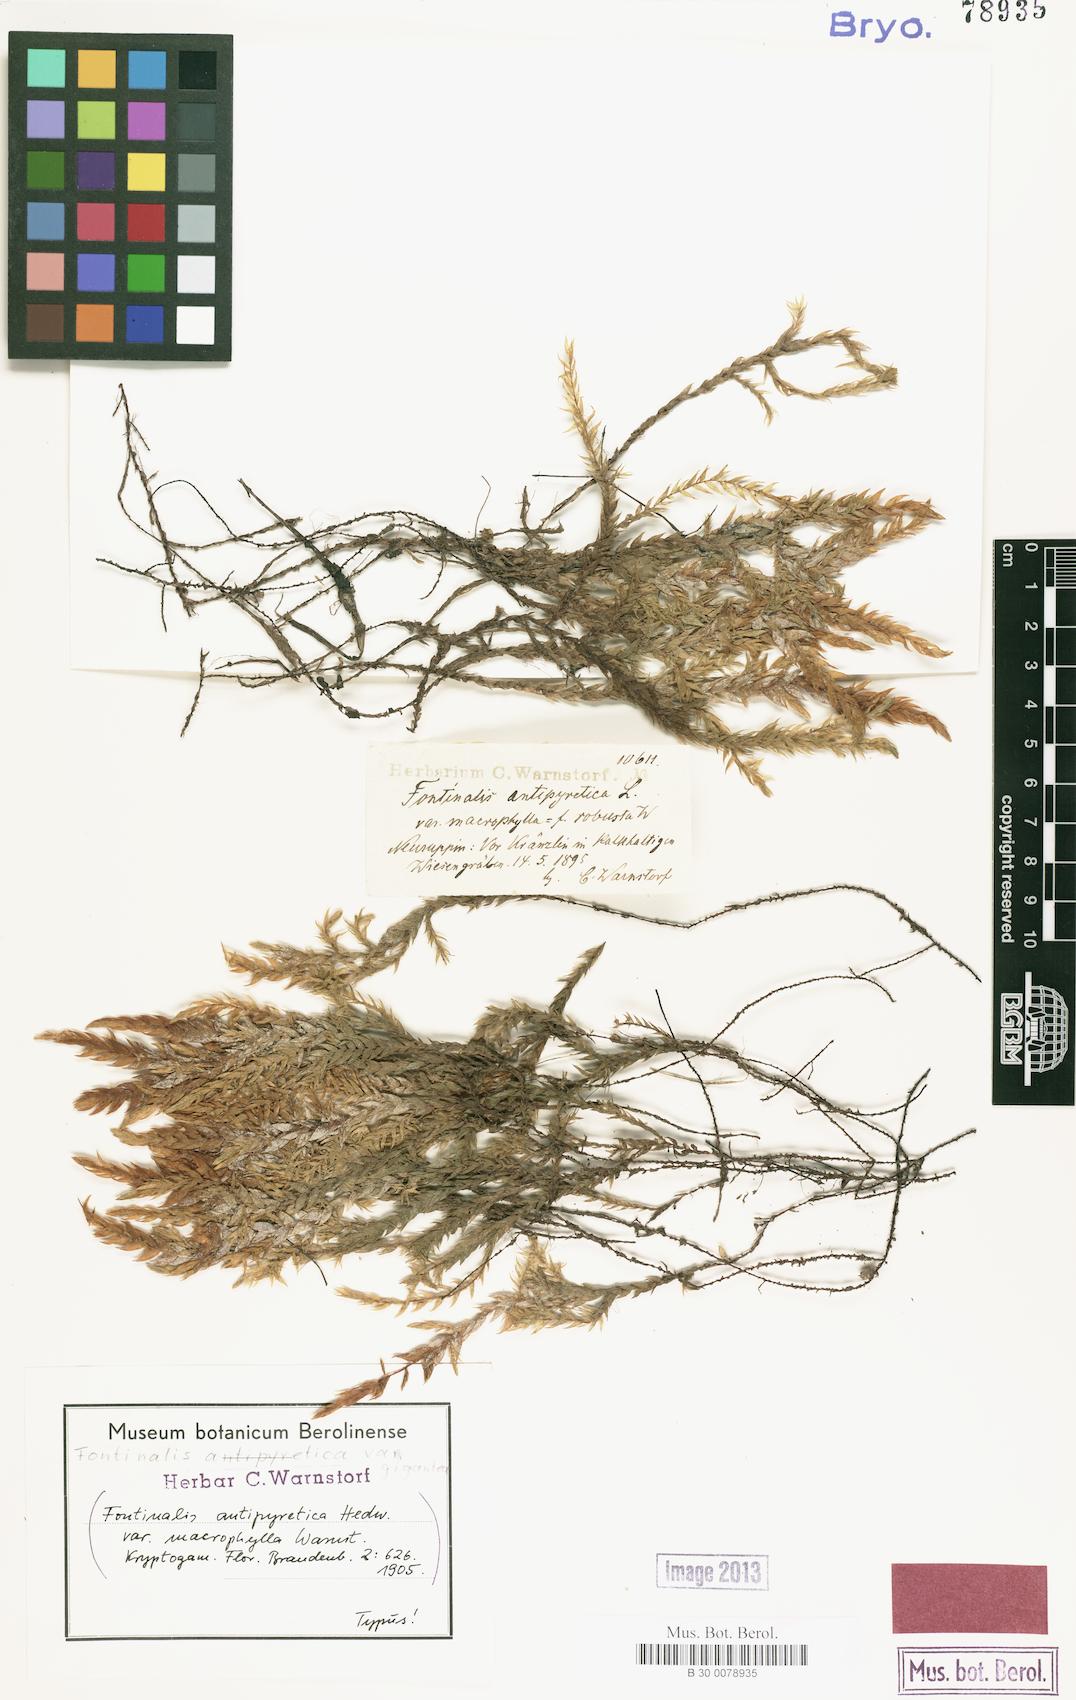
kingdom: Plantae
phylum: Bryophyta
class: Bryopsida
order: Hypnales
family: Fontinalaceae
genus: Fontinalis
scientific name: Fontinalis antipyretica
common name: Greater water-moss
